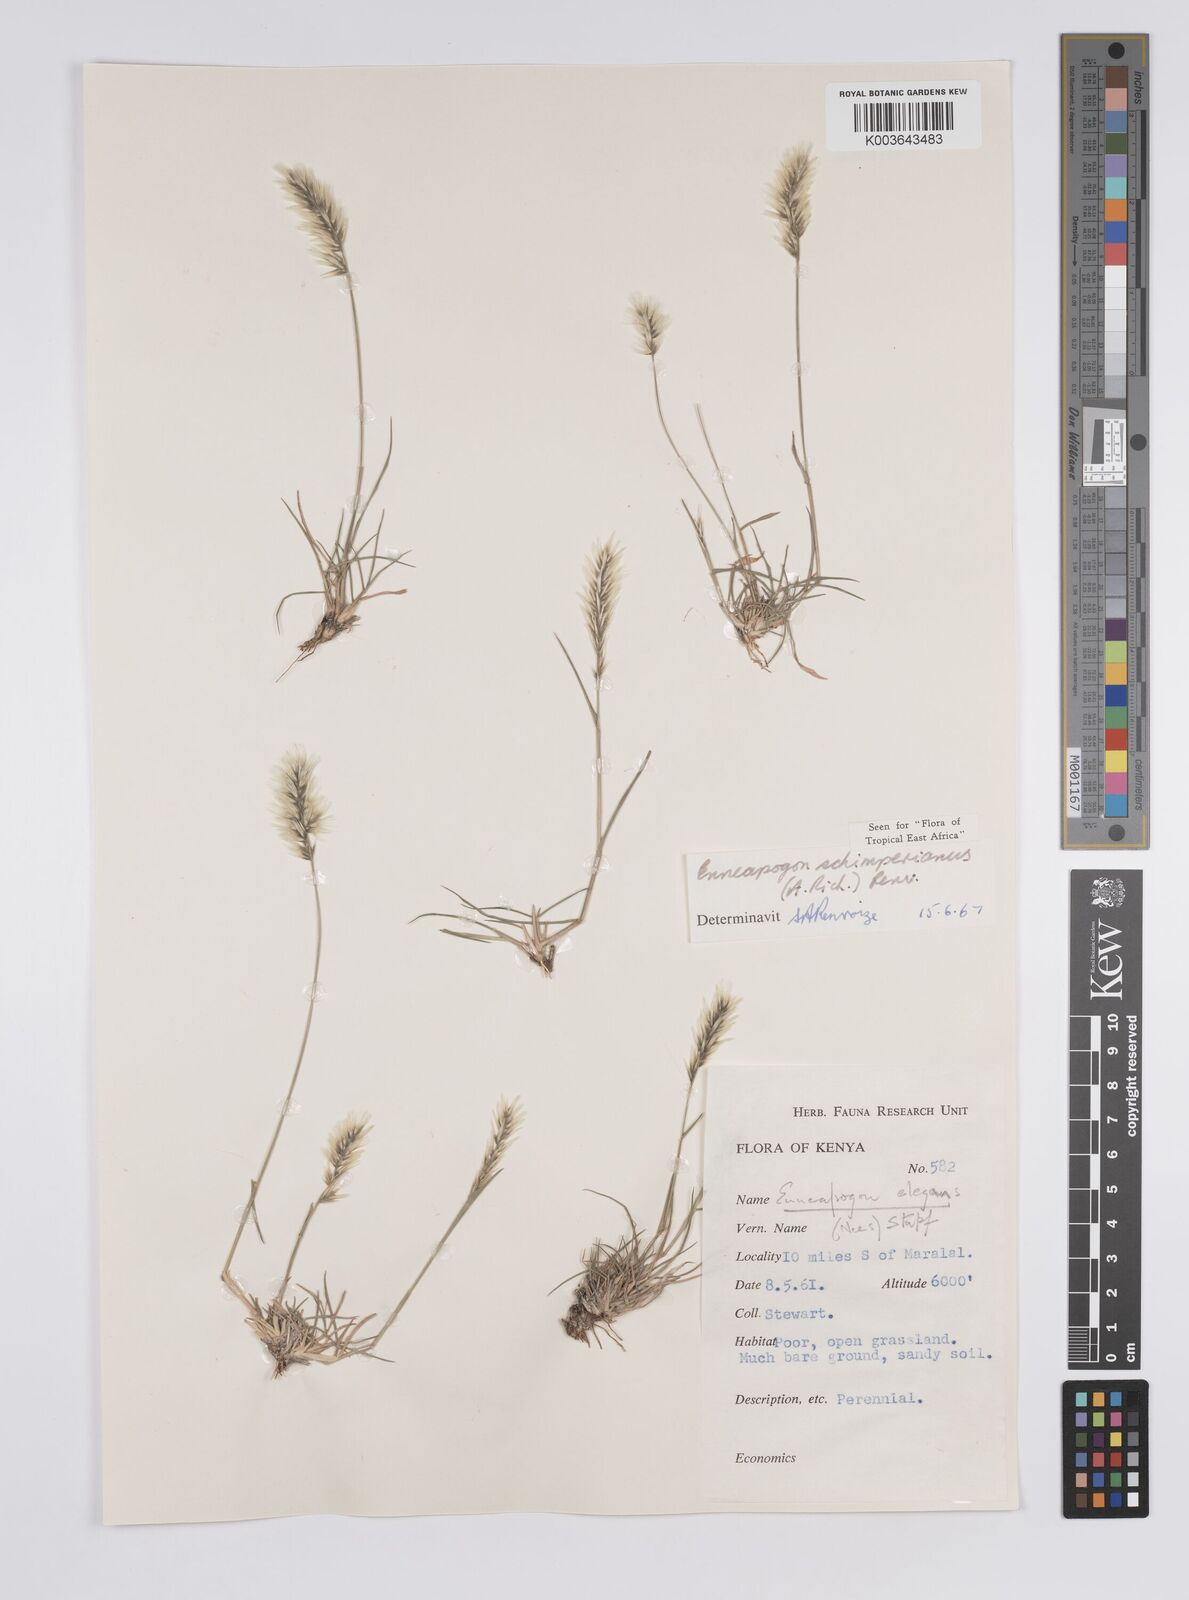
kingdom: Plantae
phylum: Tracheophyta
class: Liliopsida
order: Poales
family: Poaceae
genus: Enneapogon
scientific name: Enneapogon persicus
